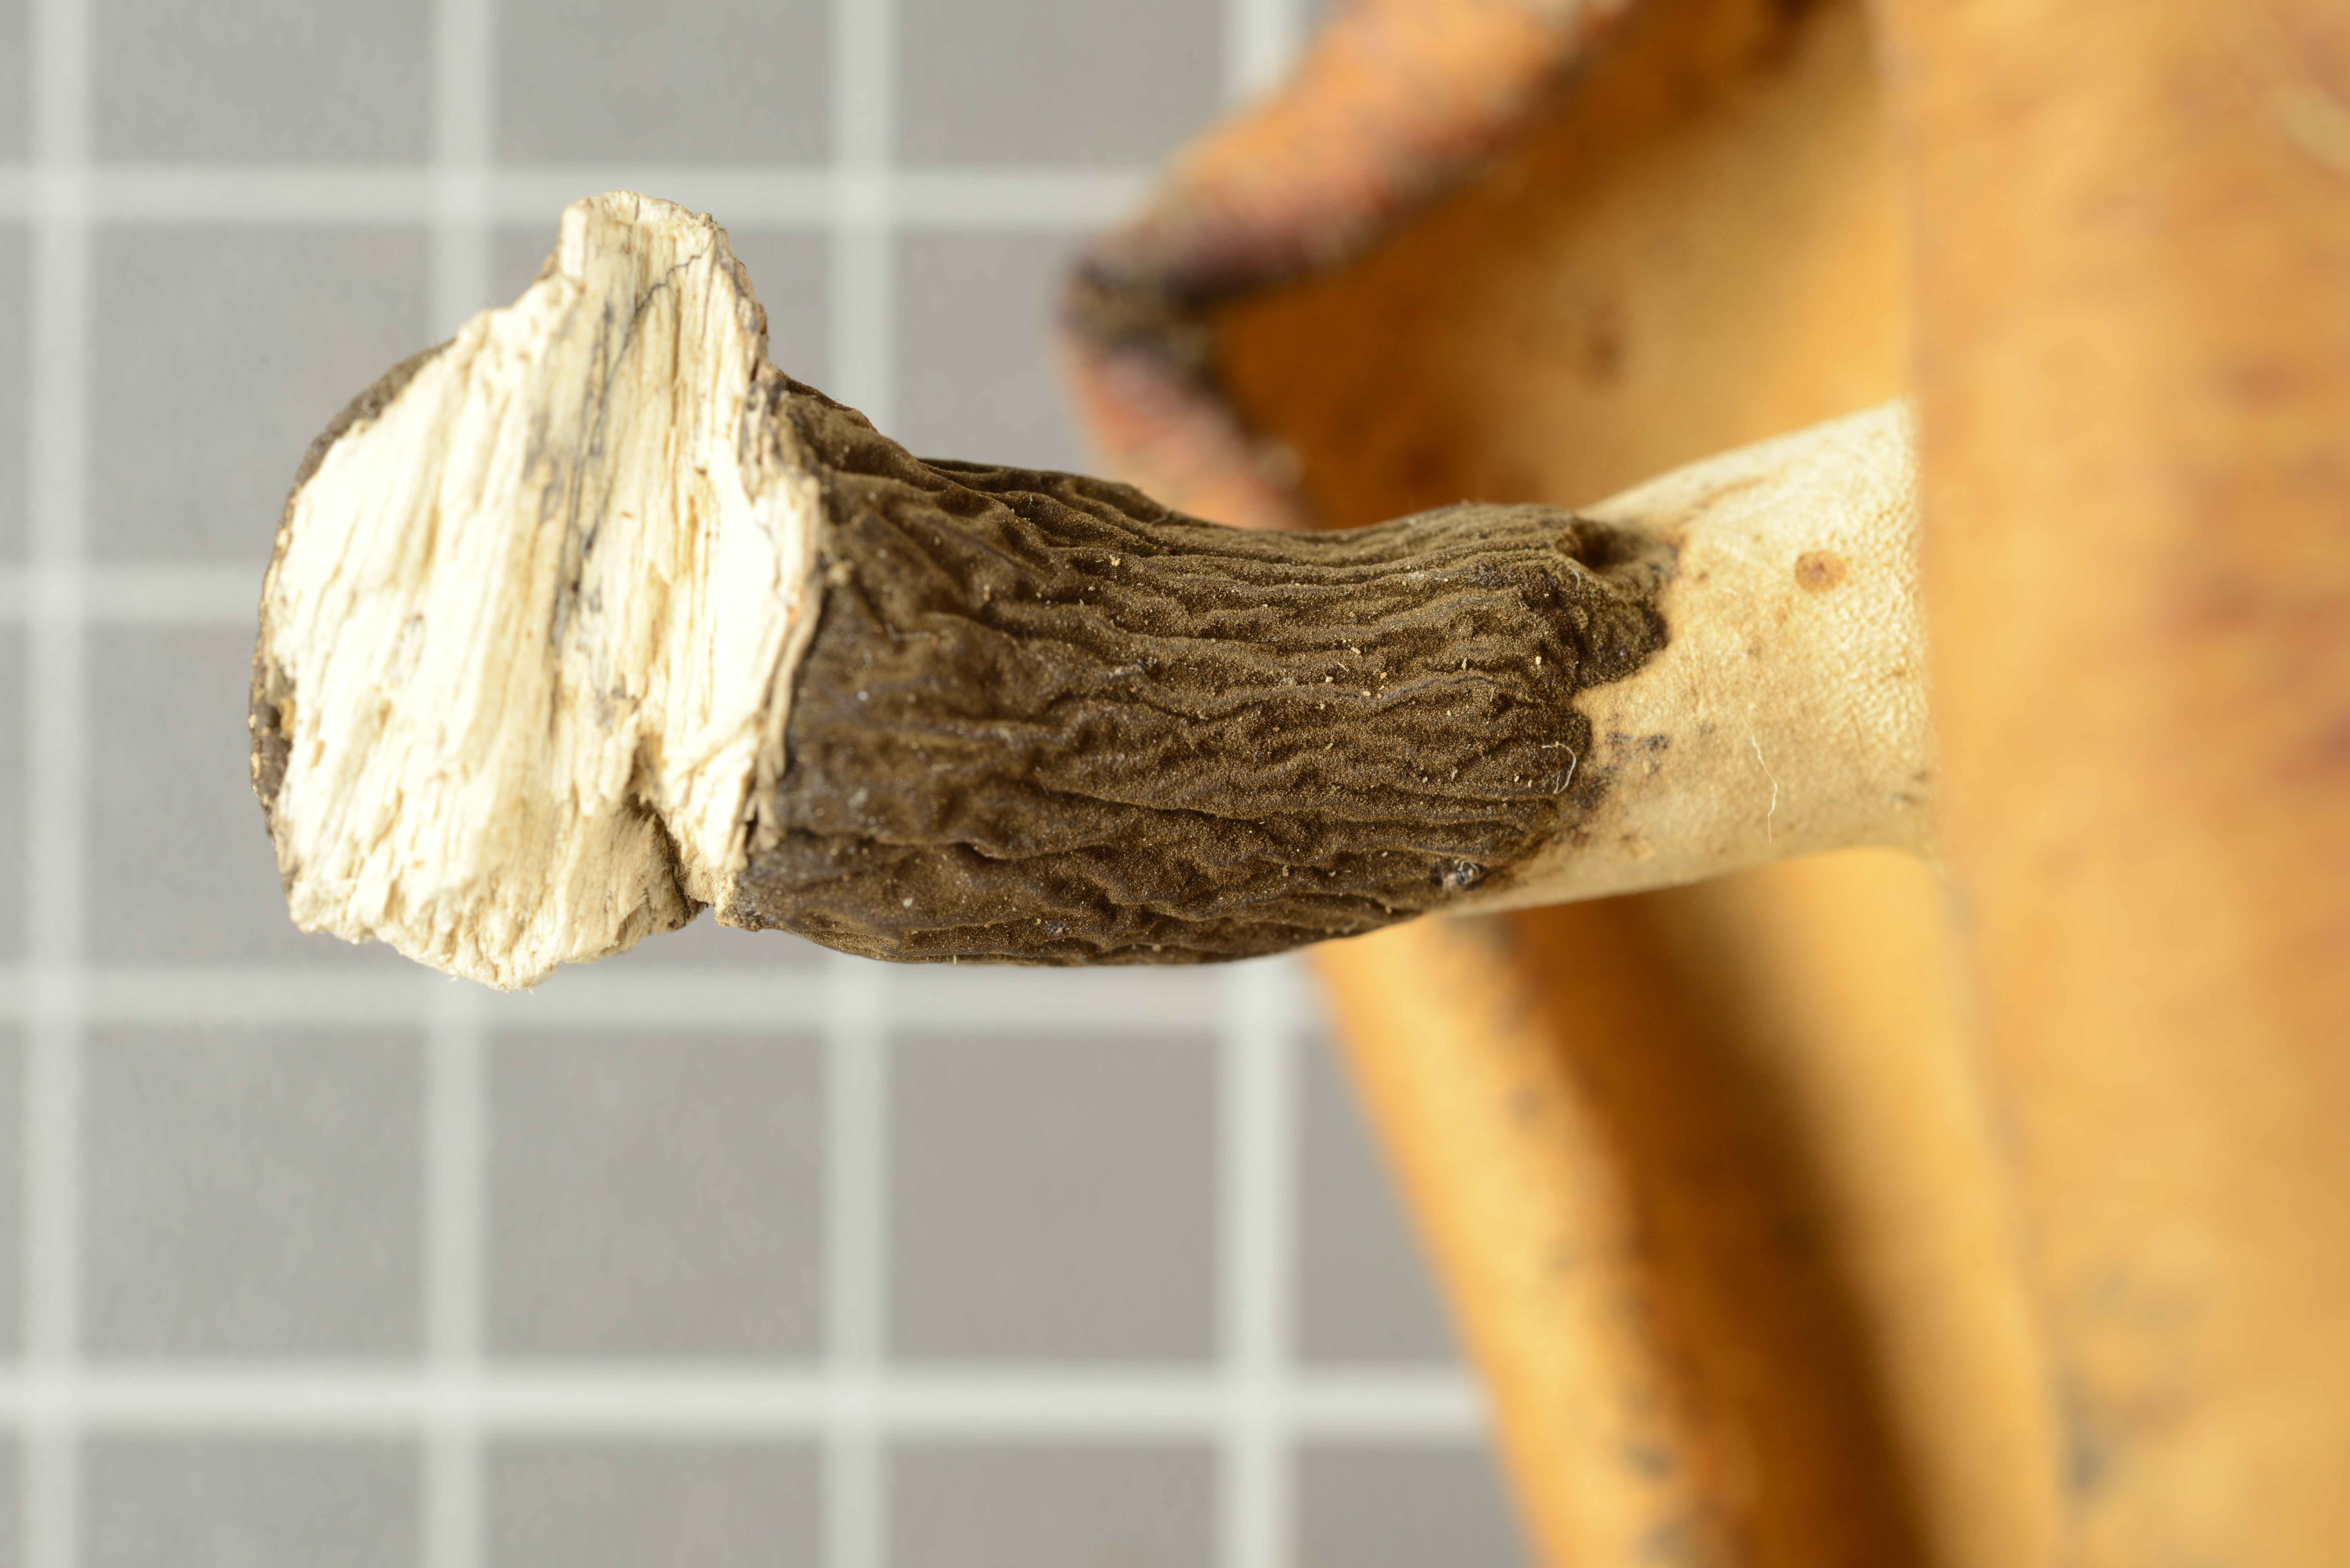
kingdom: Fungi
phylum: Basidiomycota
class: Agaricomycetes
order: Polyporales
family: Polyporaceae
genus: Polyporus
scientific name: Polyporus centroafricanus
